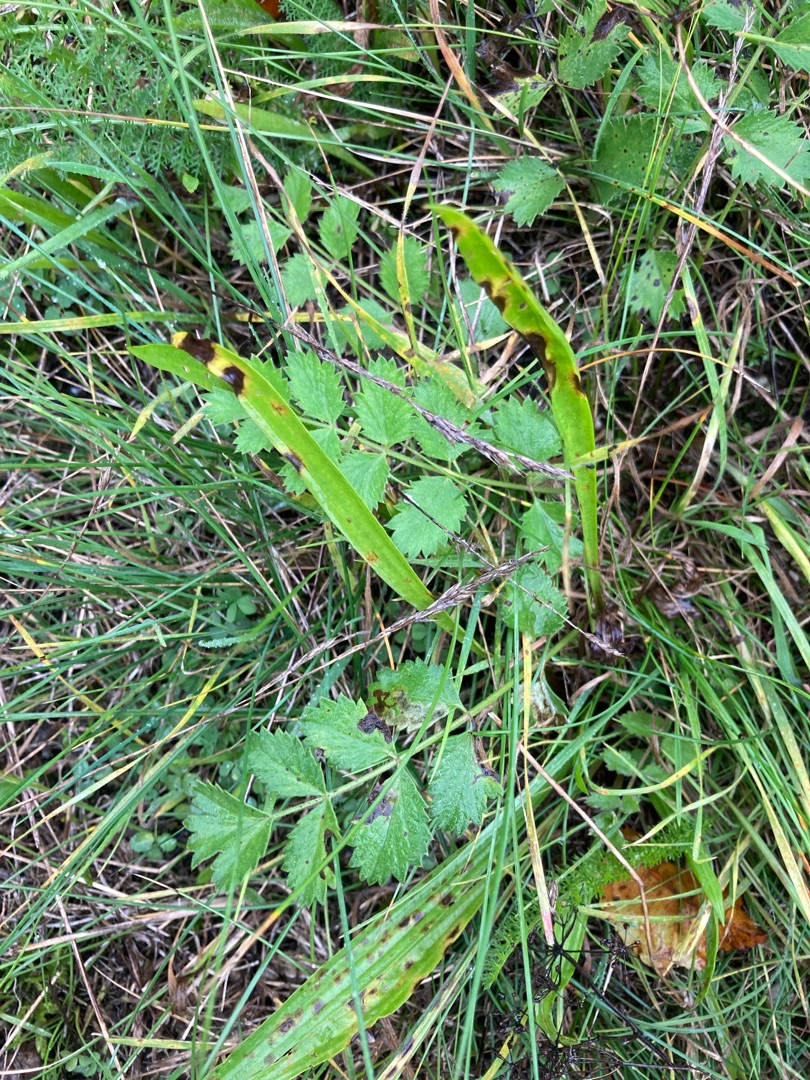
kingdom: Plantae
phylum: Tracheophyta
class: Magnoliopsida
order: Apiales
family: Apiaceae
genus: Pimpinella
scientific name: Pimpinella saxifraga
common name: Almindelig pimpinelle
